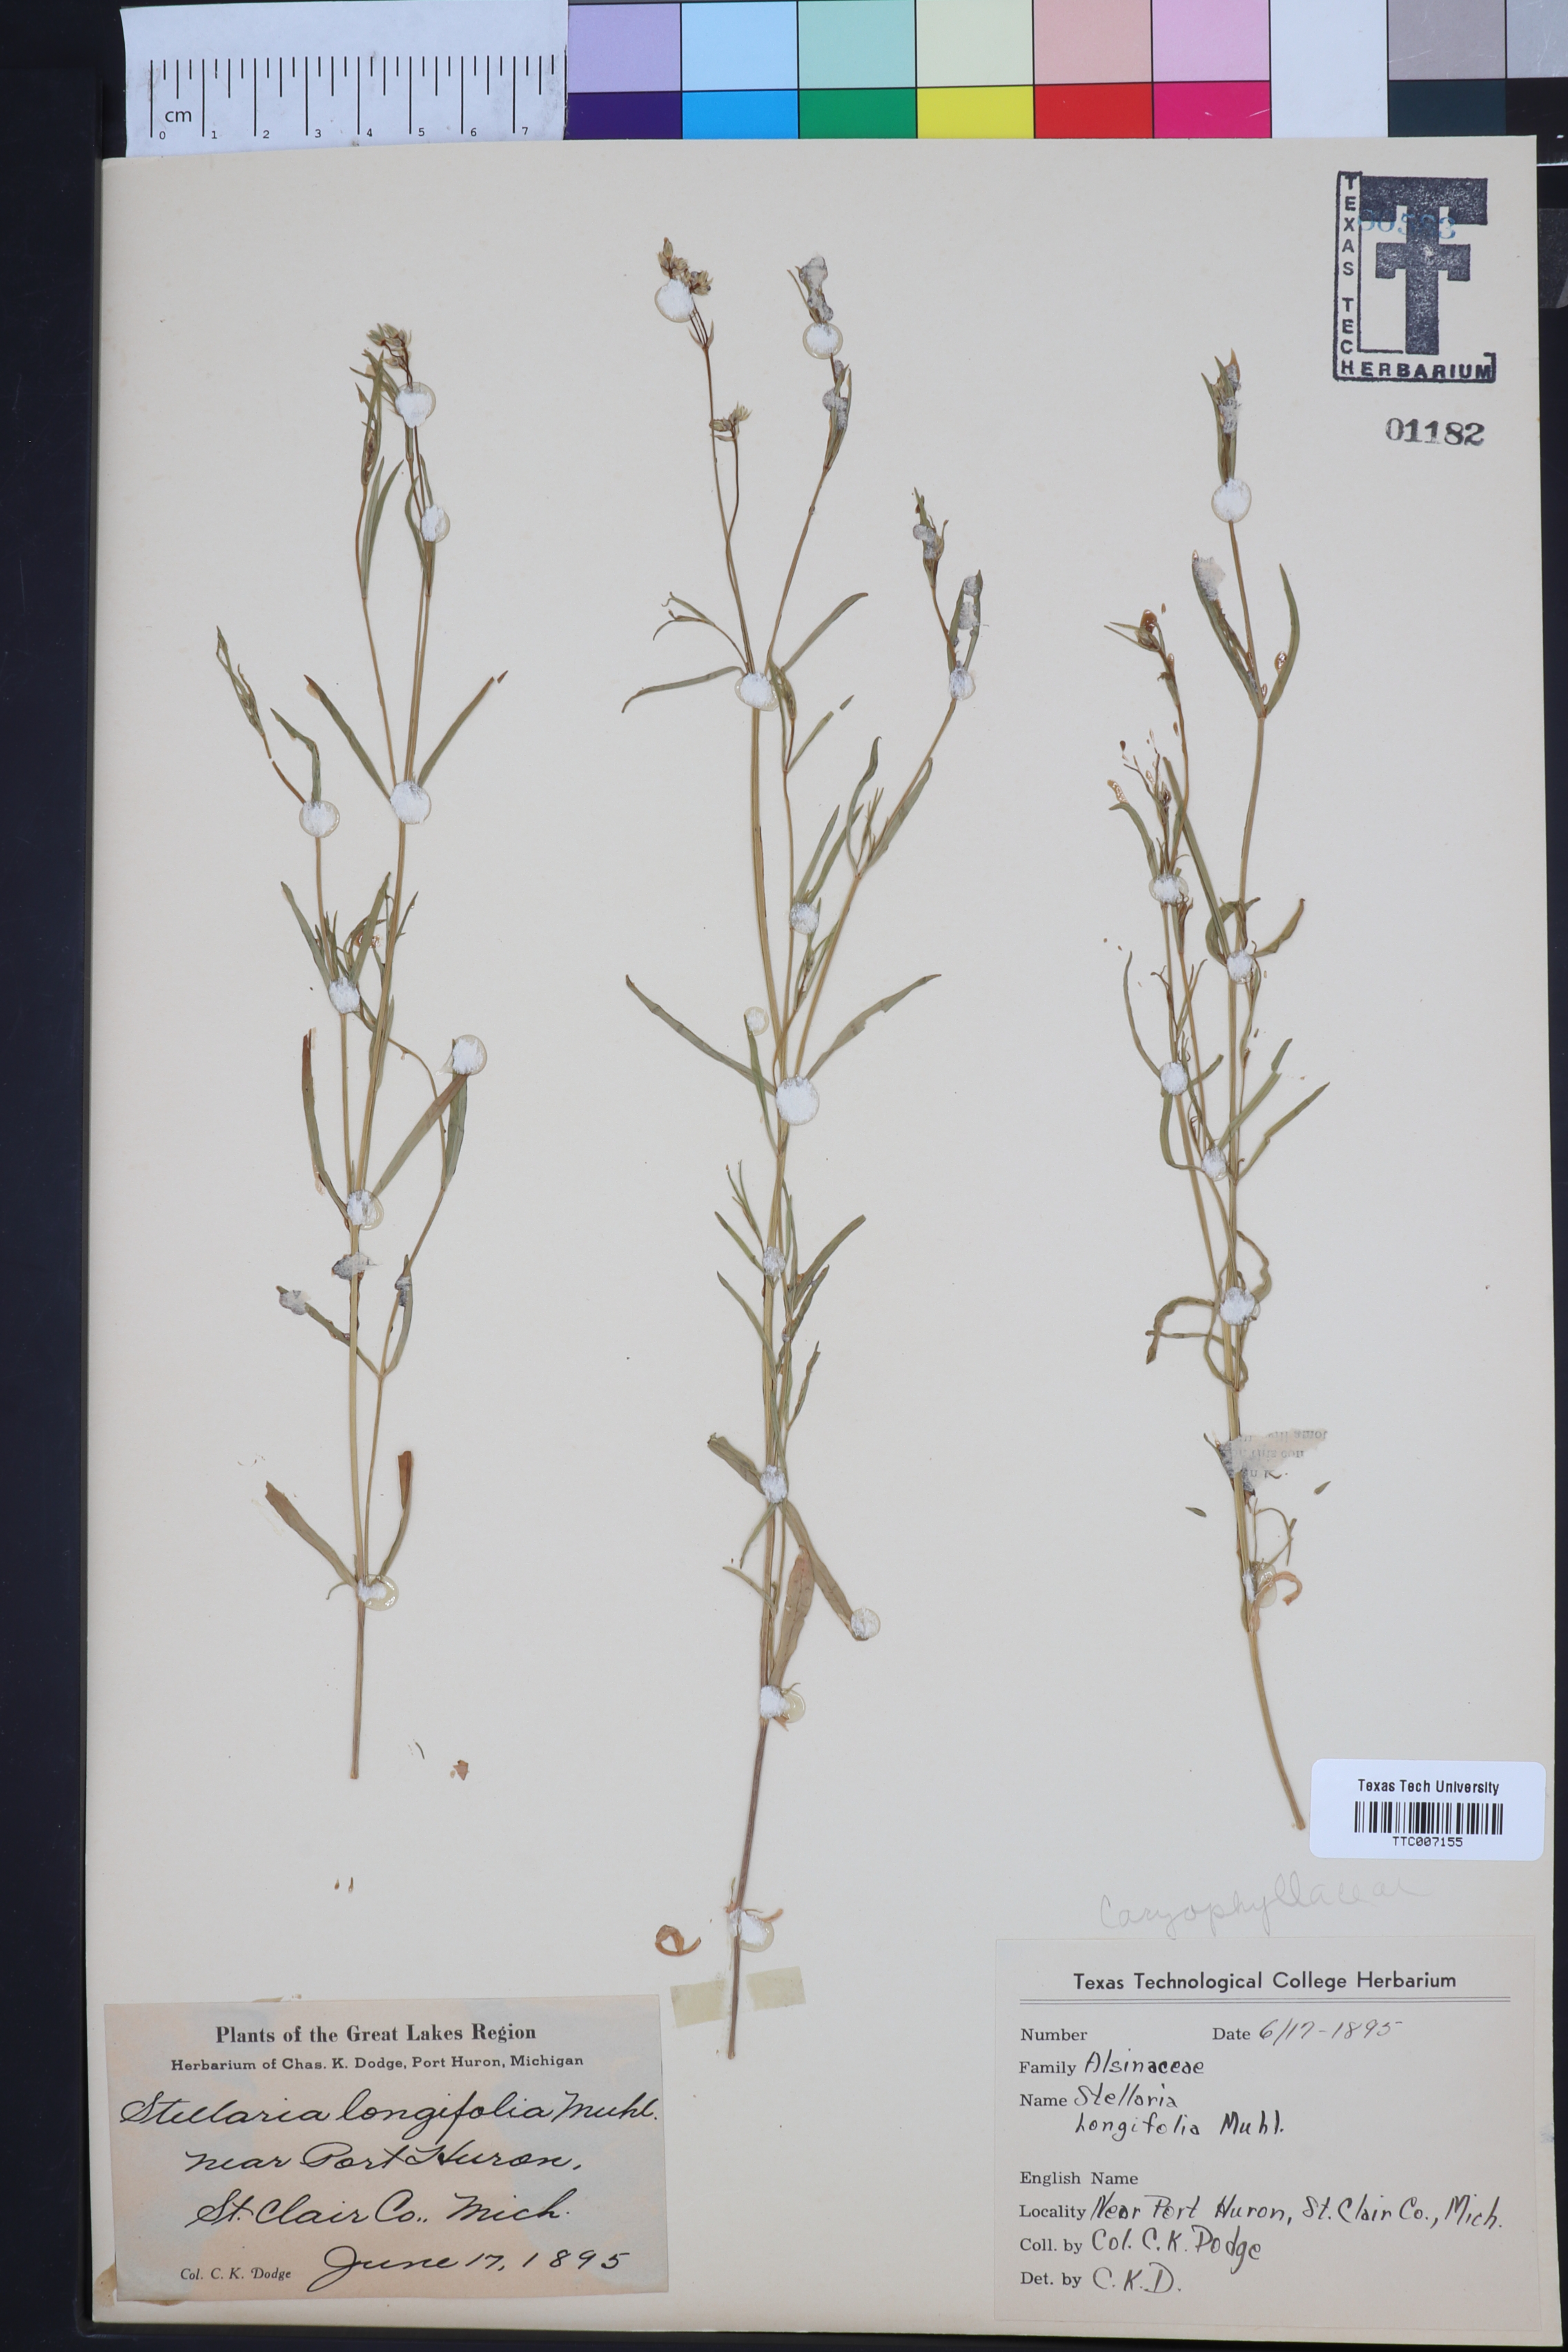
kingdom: Plantae
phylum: Tracheophyta
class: Magnoliopsida
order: Caryophyllales
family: Caryophyllaceae
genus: Stellaria
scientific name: Stellaria longifolia
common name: Long-leaved chickweed
